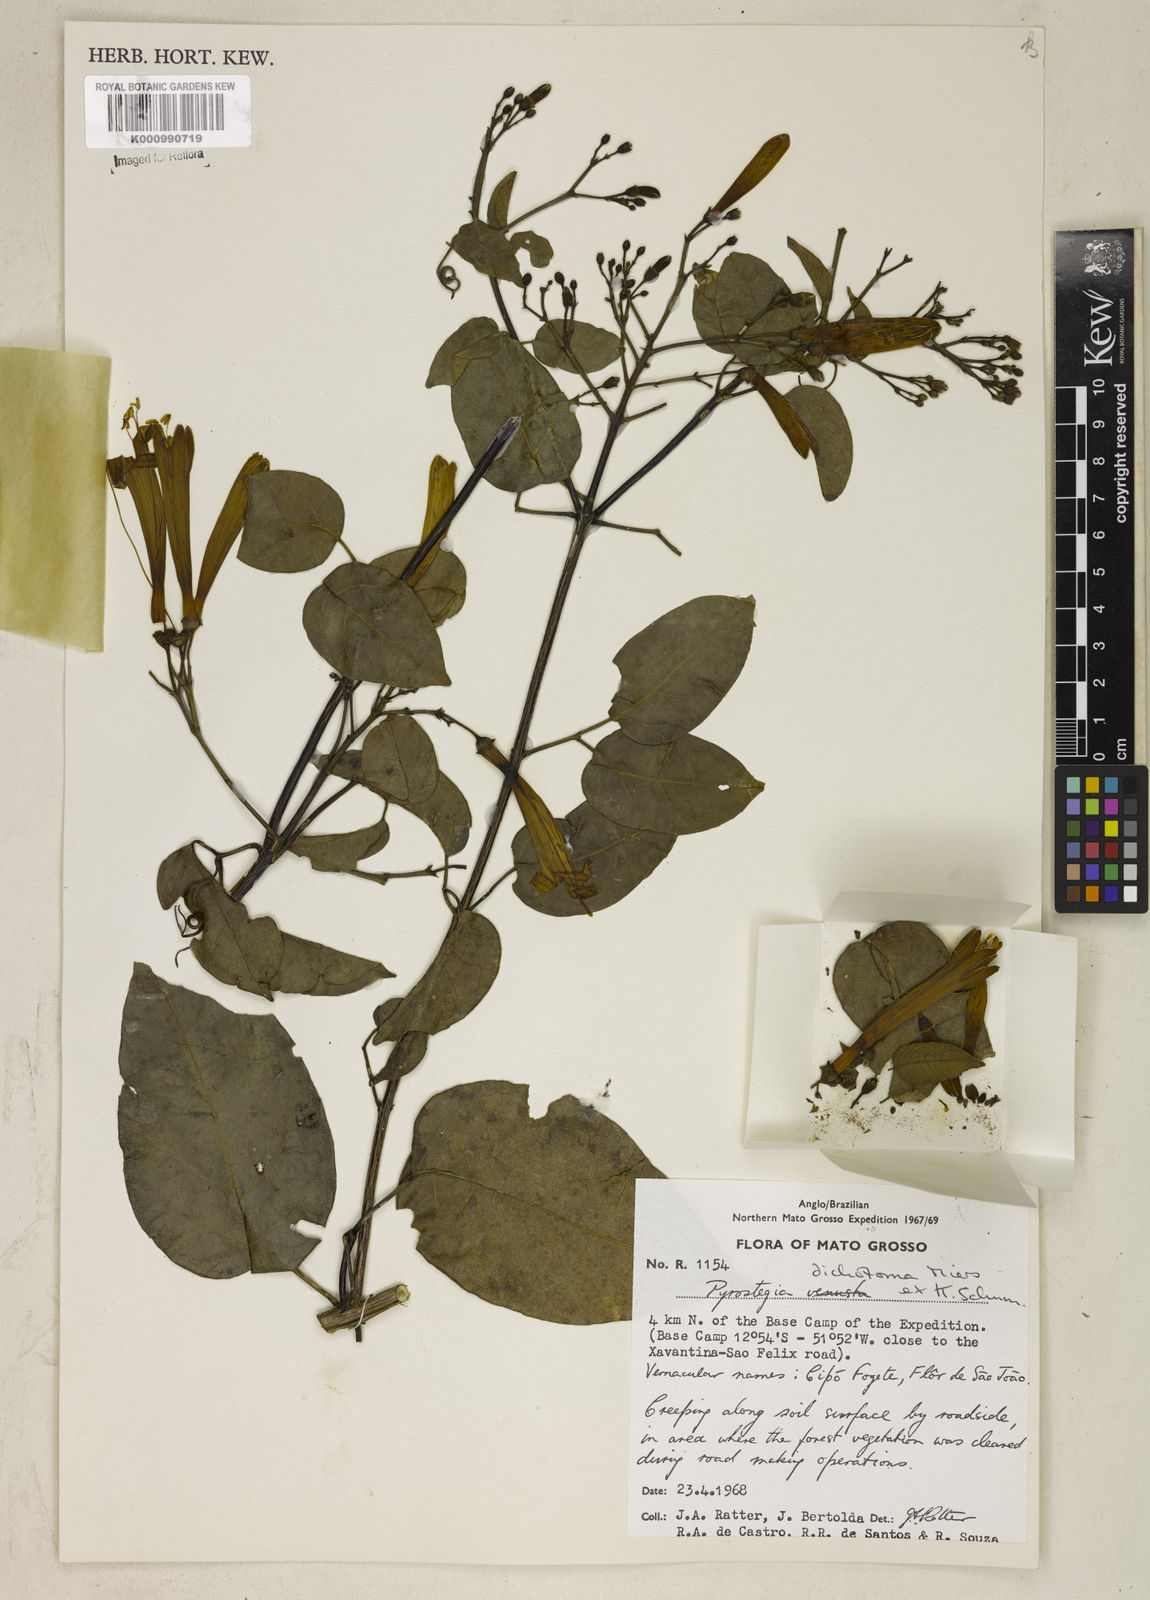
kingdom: Plantae
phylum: Tracheophyta
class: Magnoliopsida
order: Lamiales
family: Bignoniaceae
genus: Pyrostegia
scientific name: Pyrostegia
